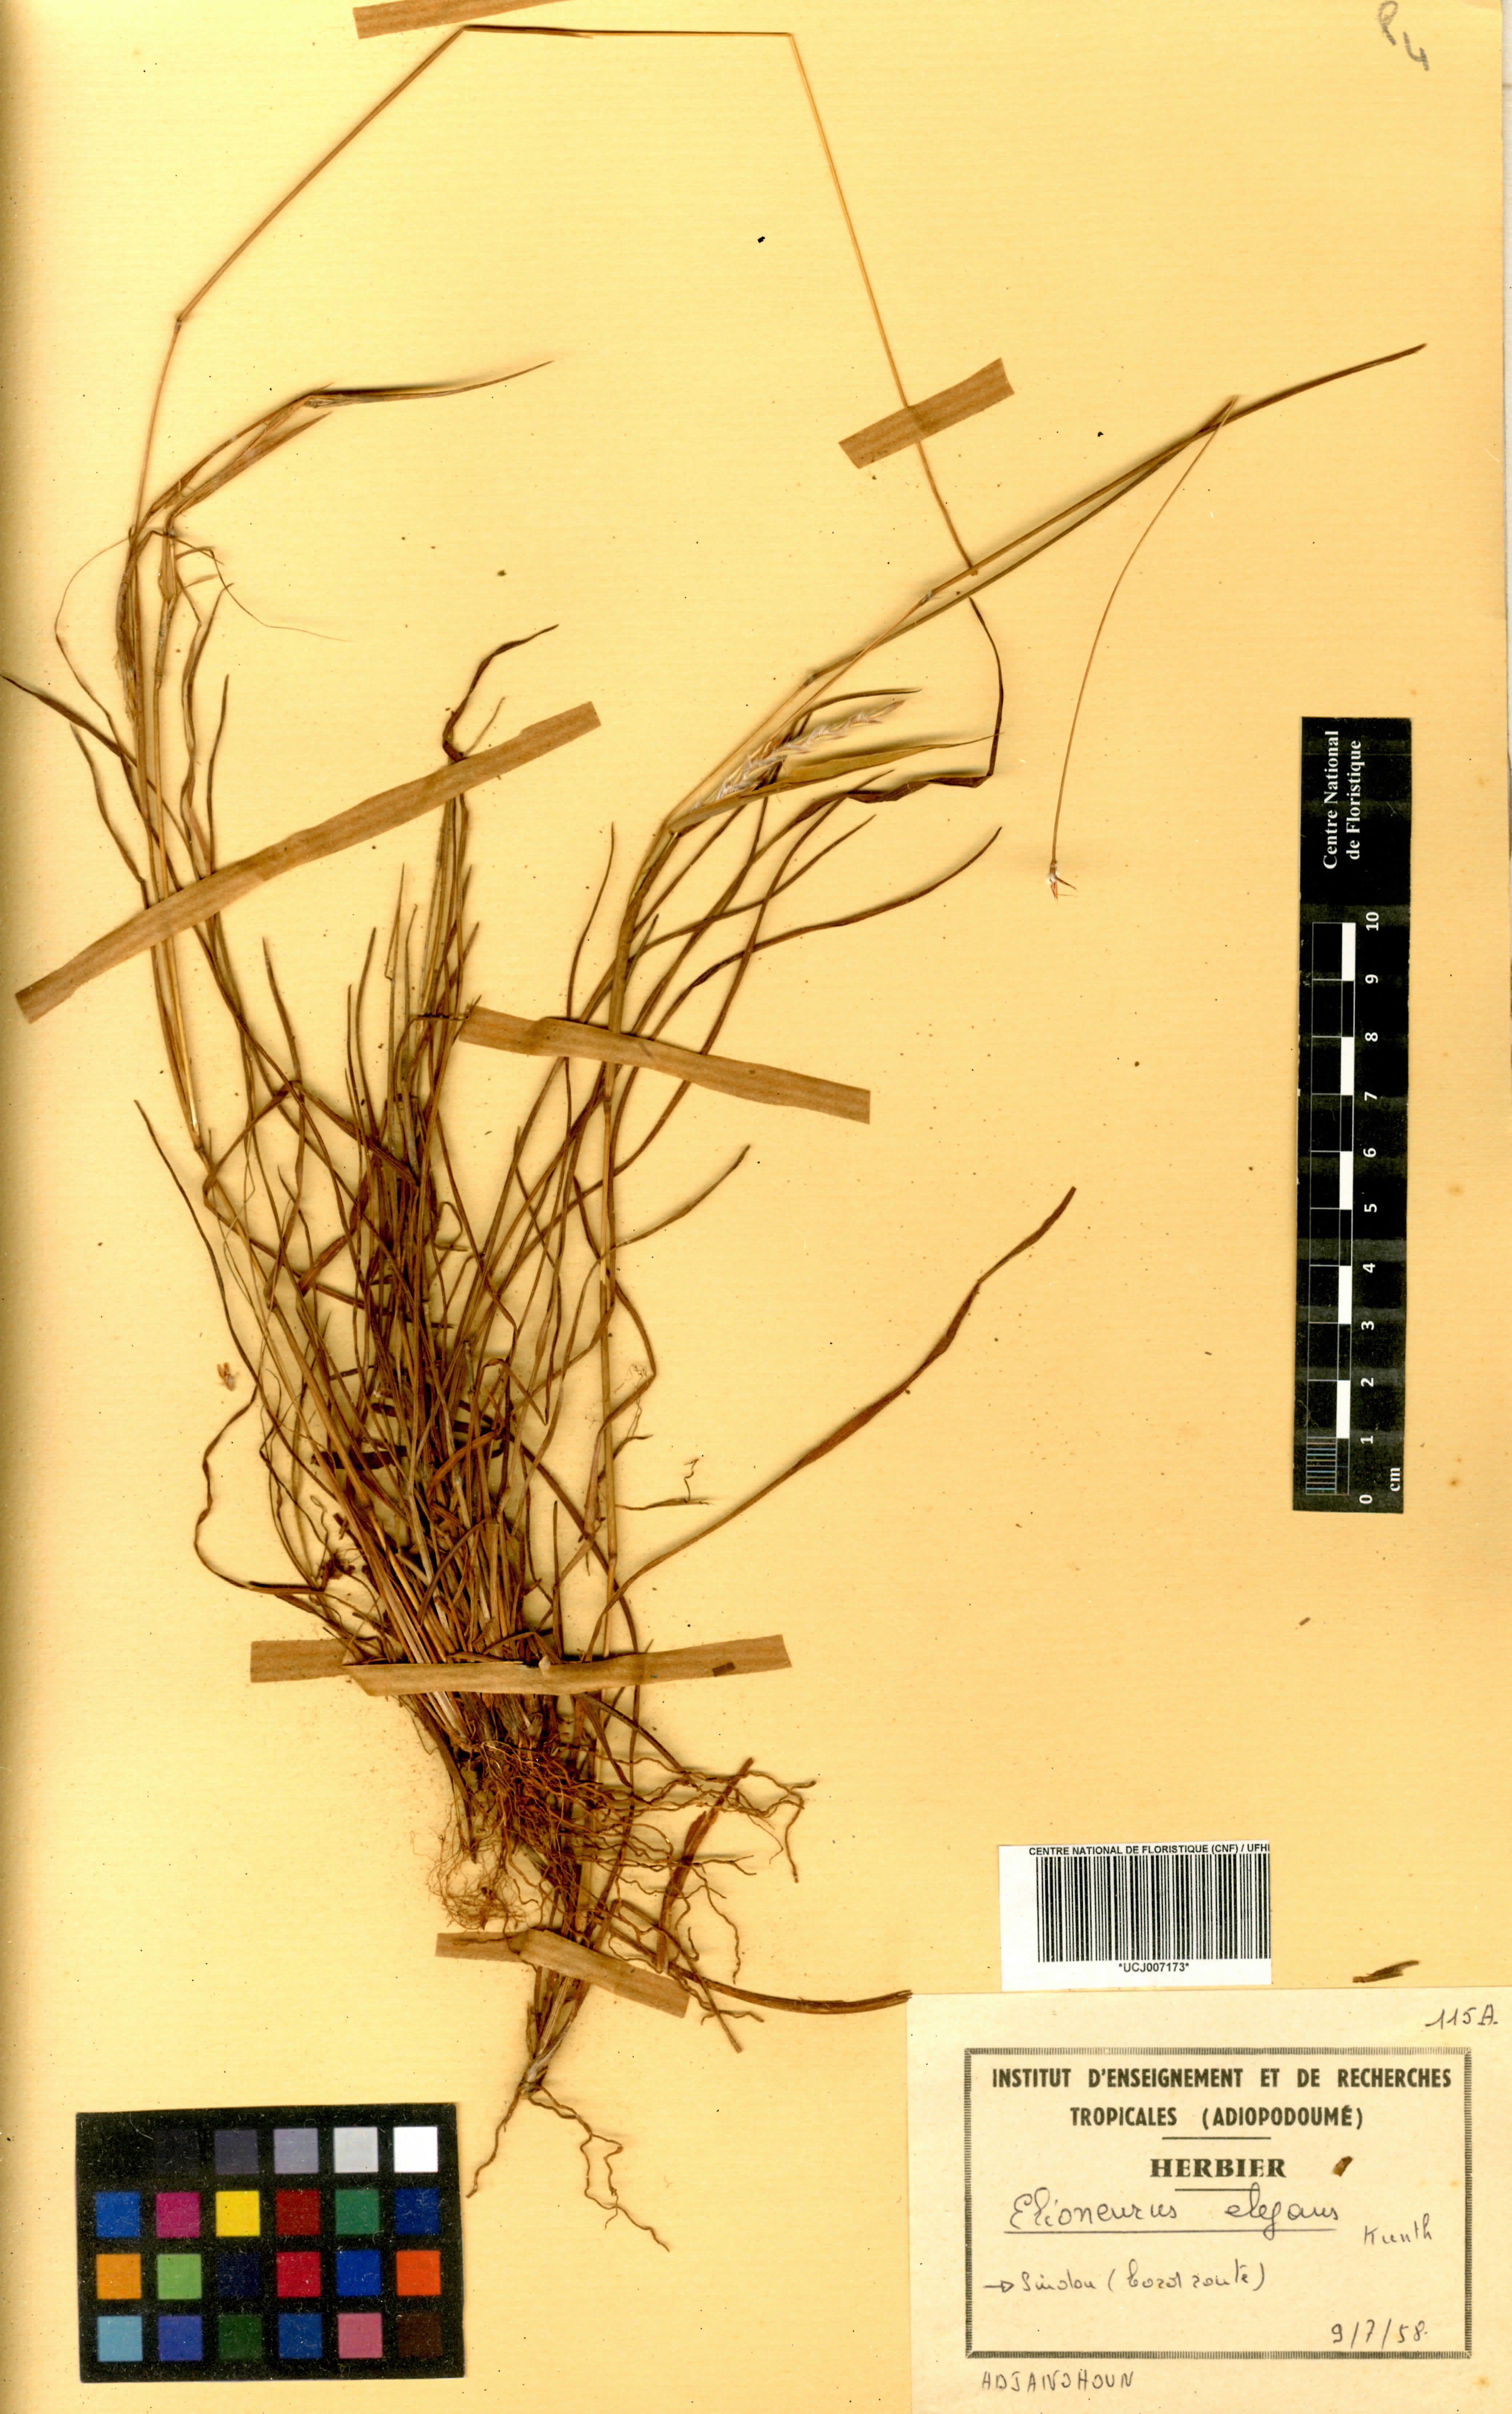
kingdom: Plantae
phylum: Tracheophyta
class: Liliopsida
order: Poales
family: Poaceae
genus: Elionurus
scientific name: Elionurus elegans
